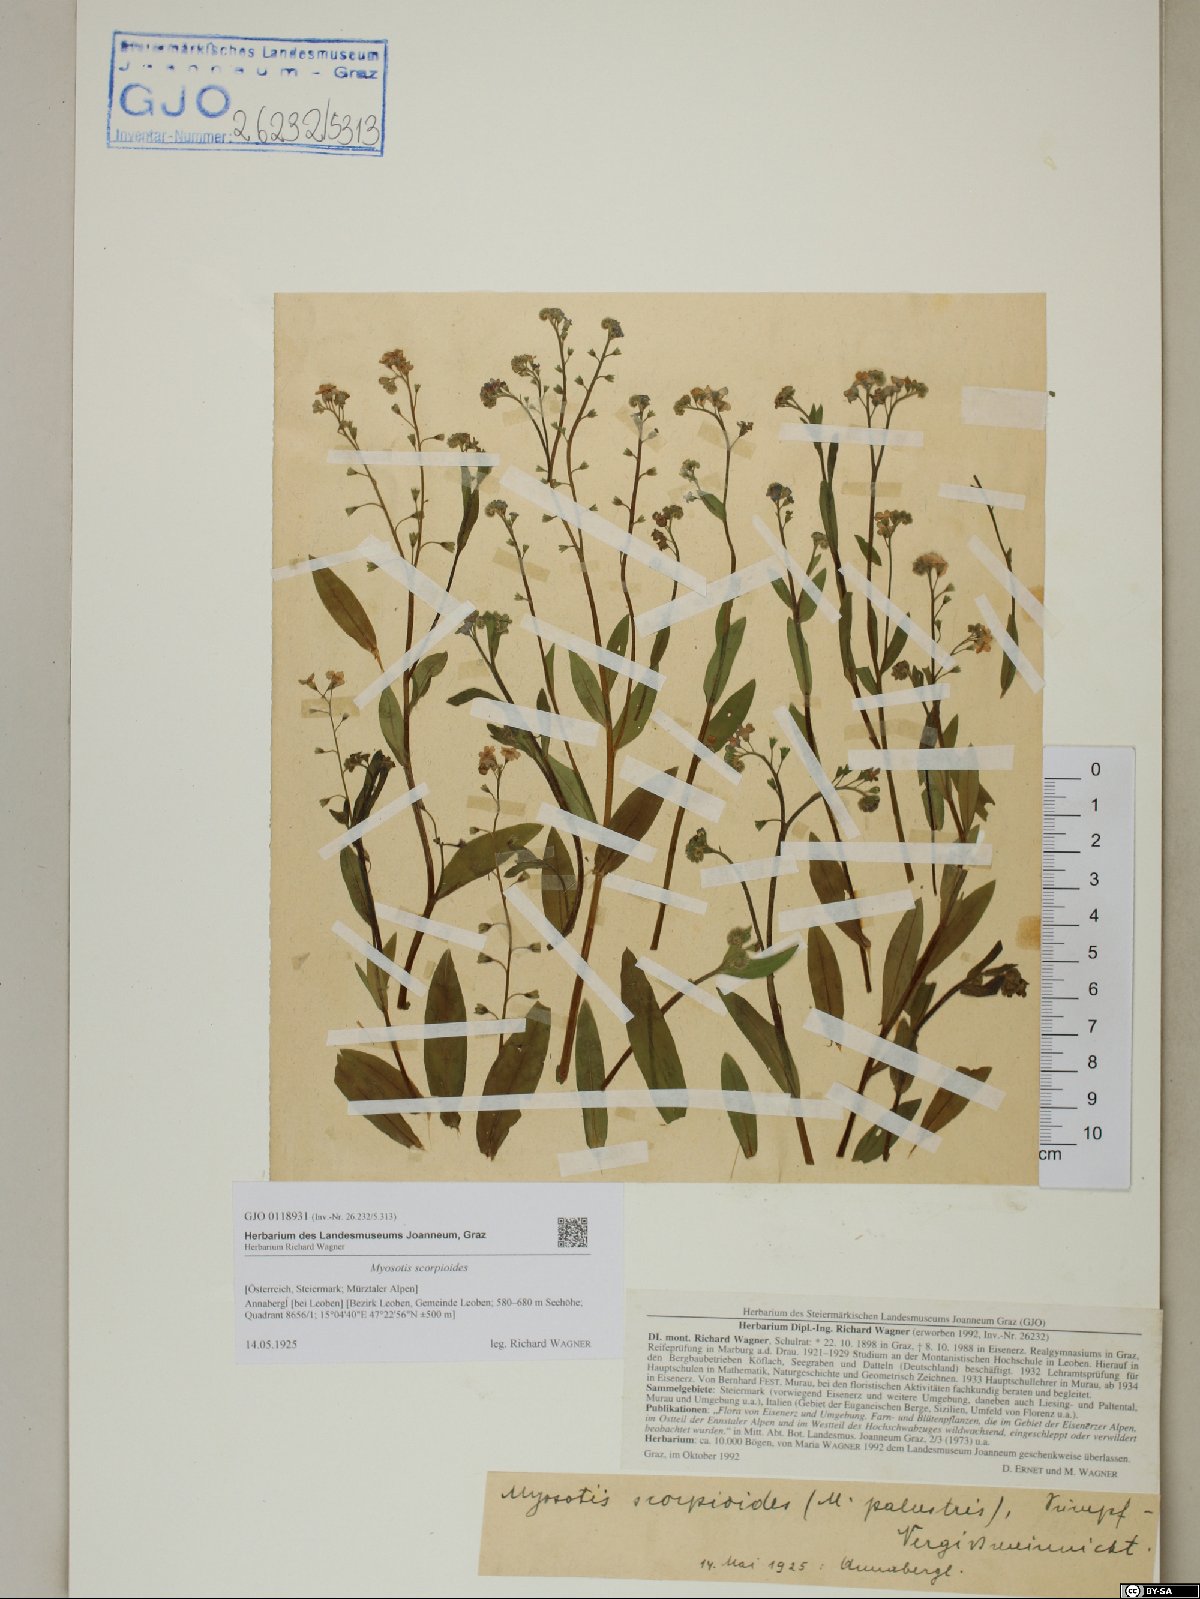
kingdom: Plantae
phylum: Tracheophyta
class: Magnoliopsida
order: Boraginales
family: Boraginaceae
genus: Myosotis
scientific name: Myosotis scorpioides
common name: Water forget-me-not
